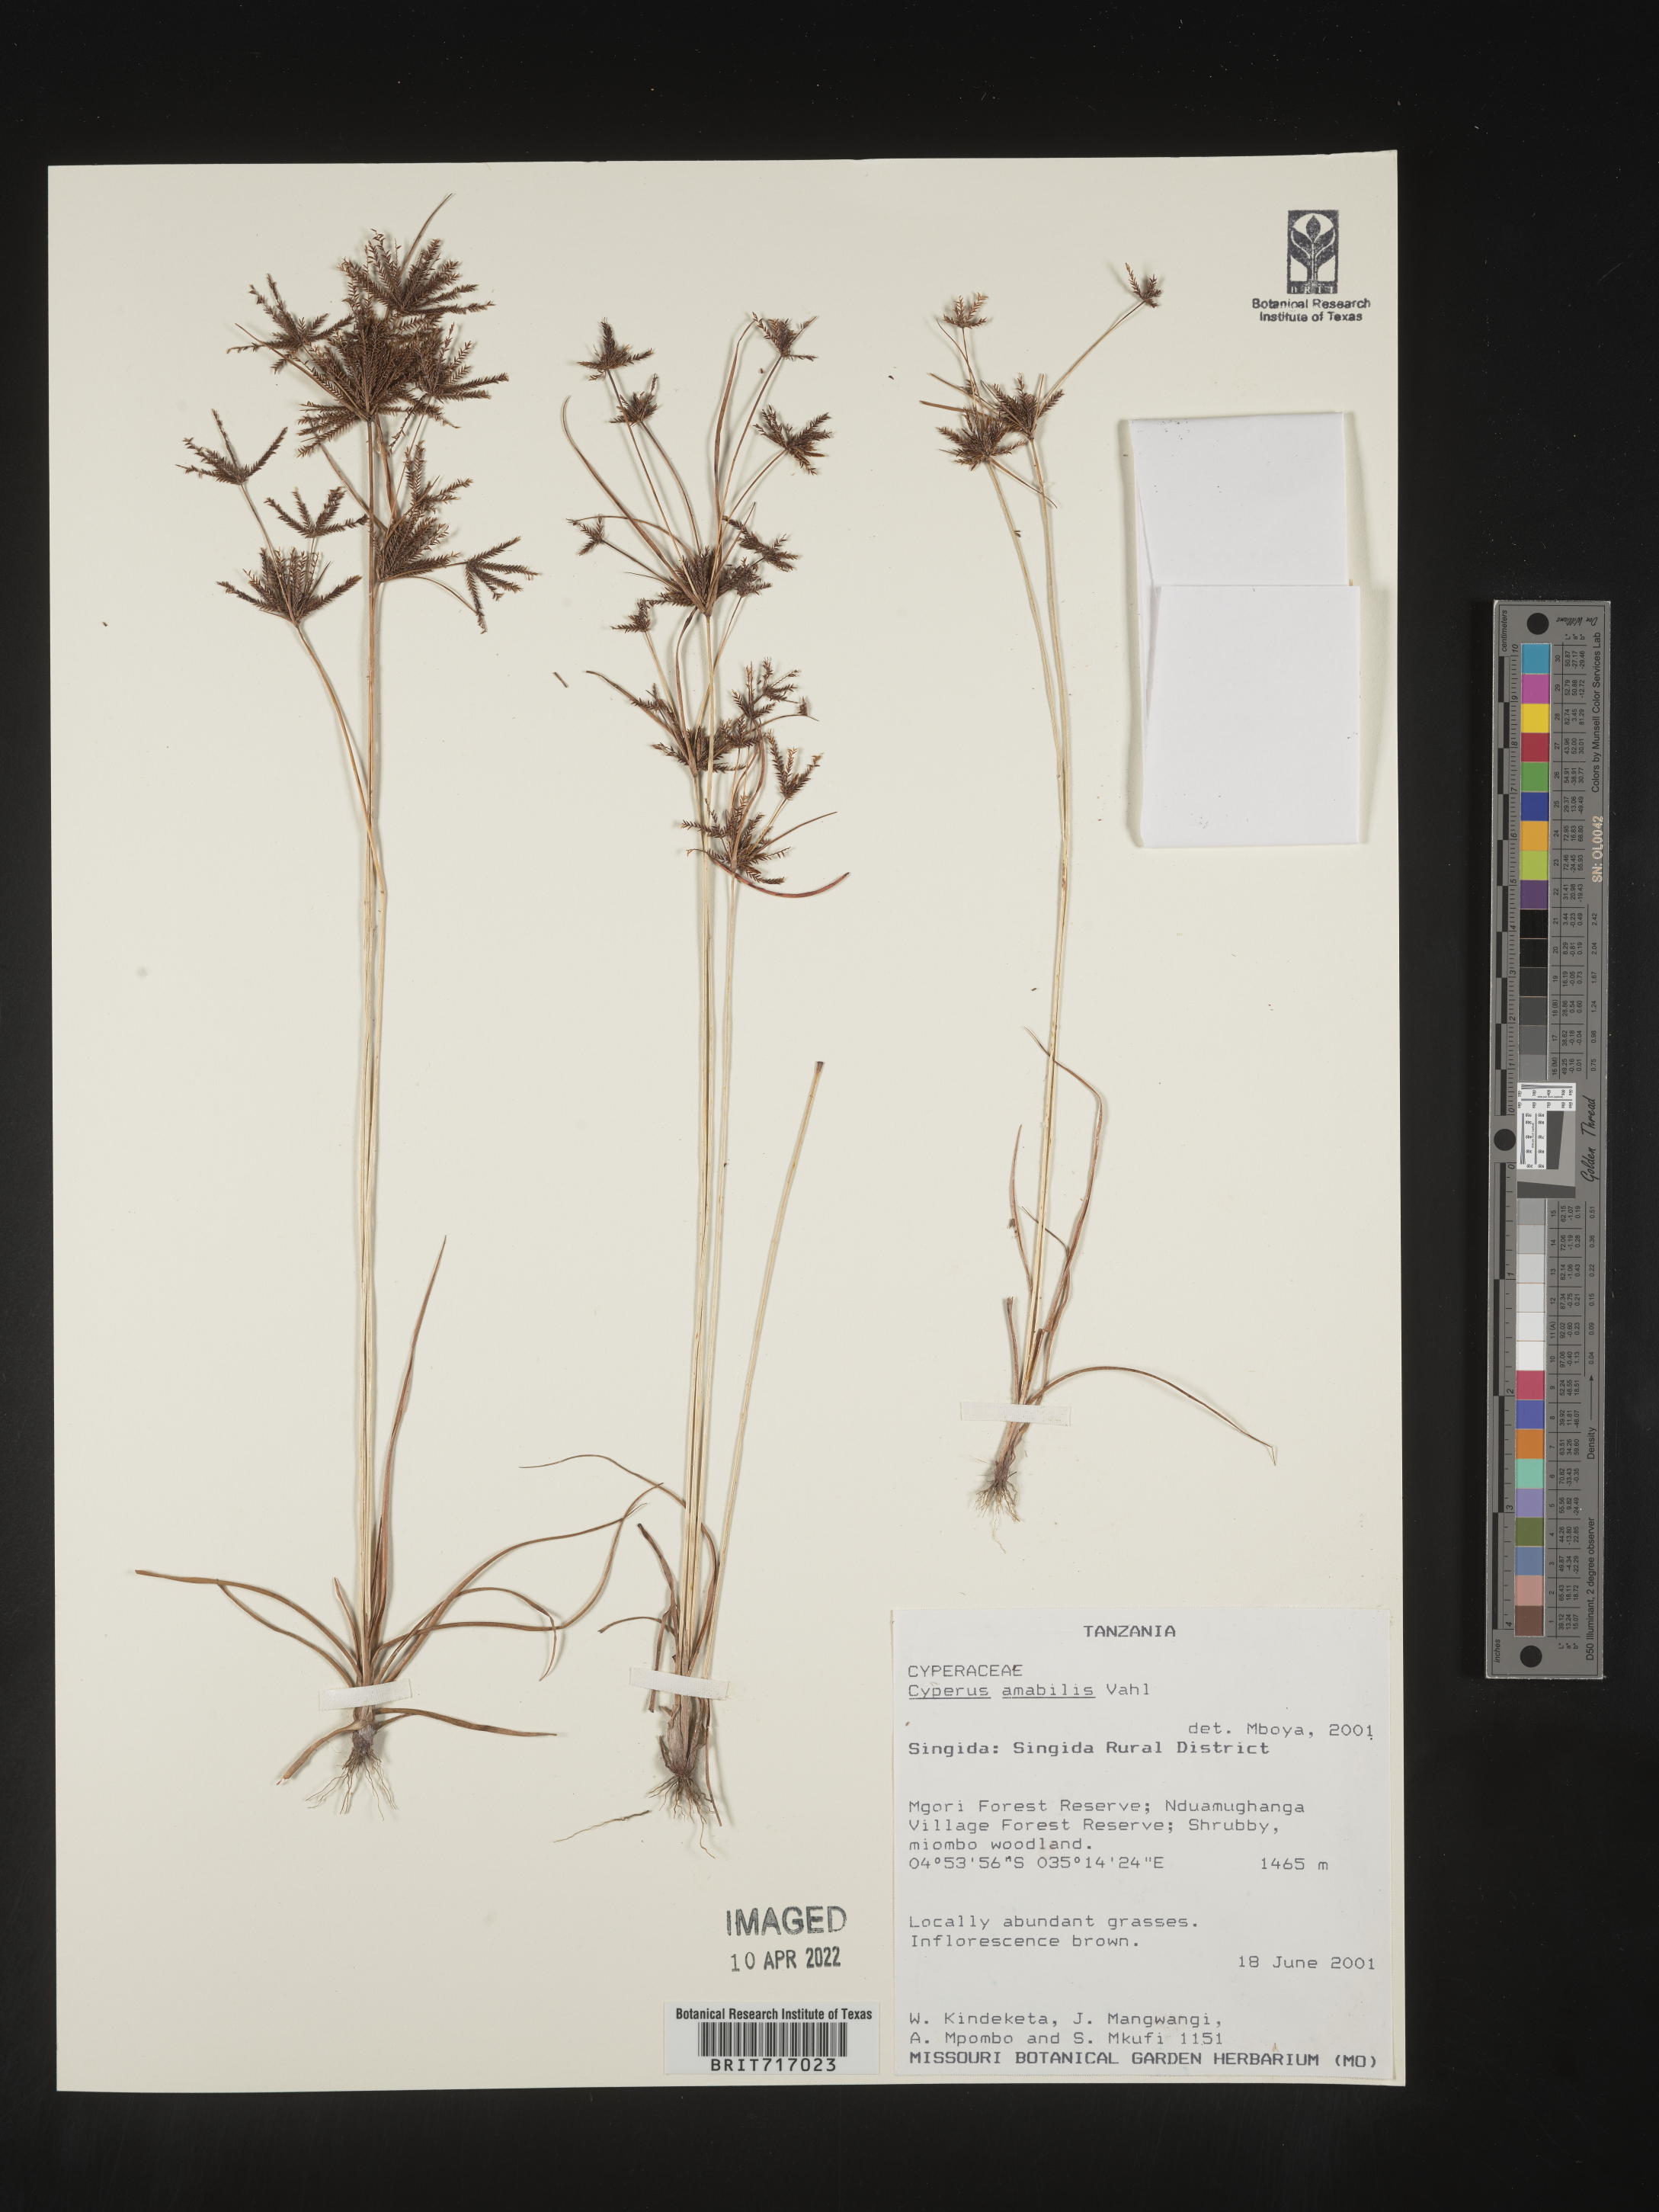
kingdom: Plantae
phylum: Tracheophyta
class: Liliopsida
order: Poales
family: Cyperaceae
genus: Cyperus
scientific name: Cyperus
